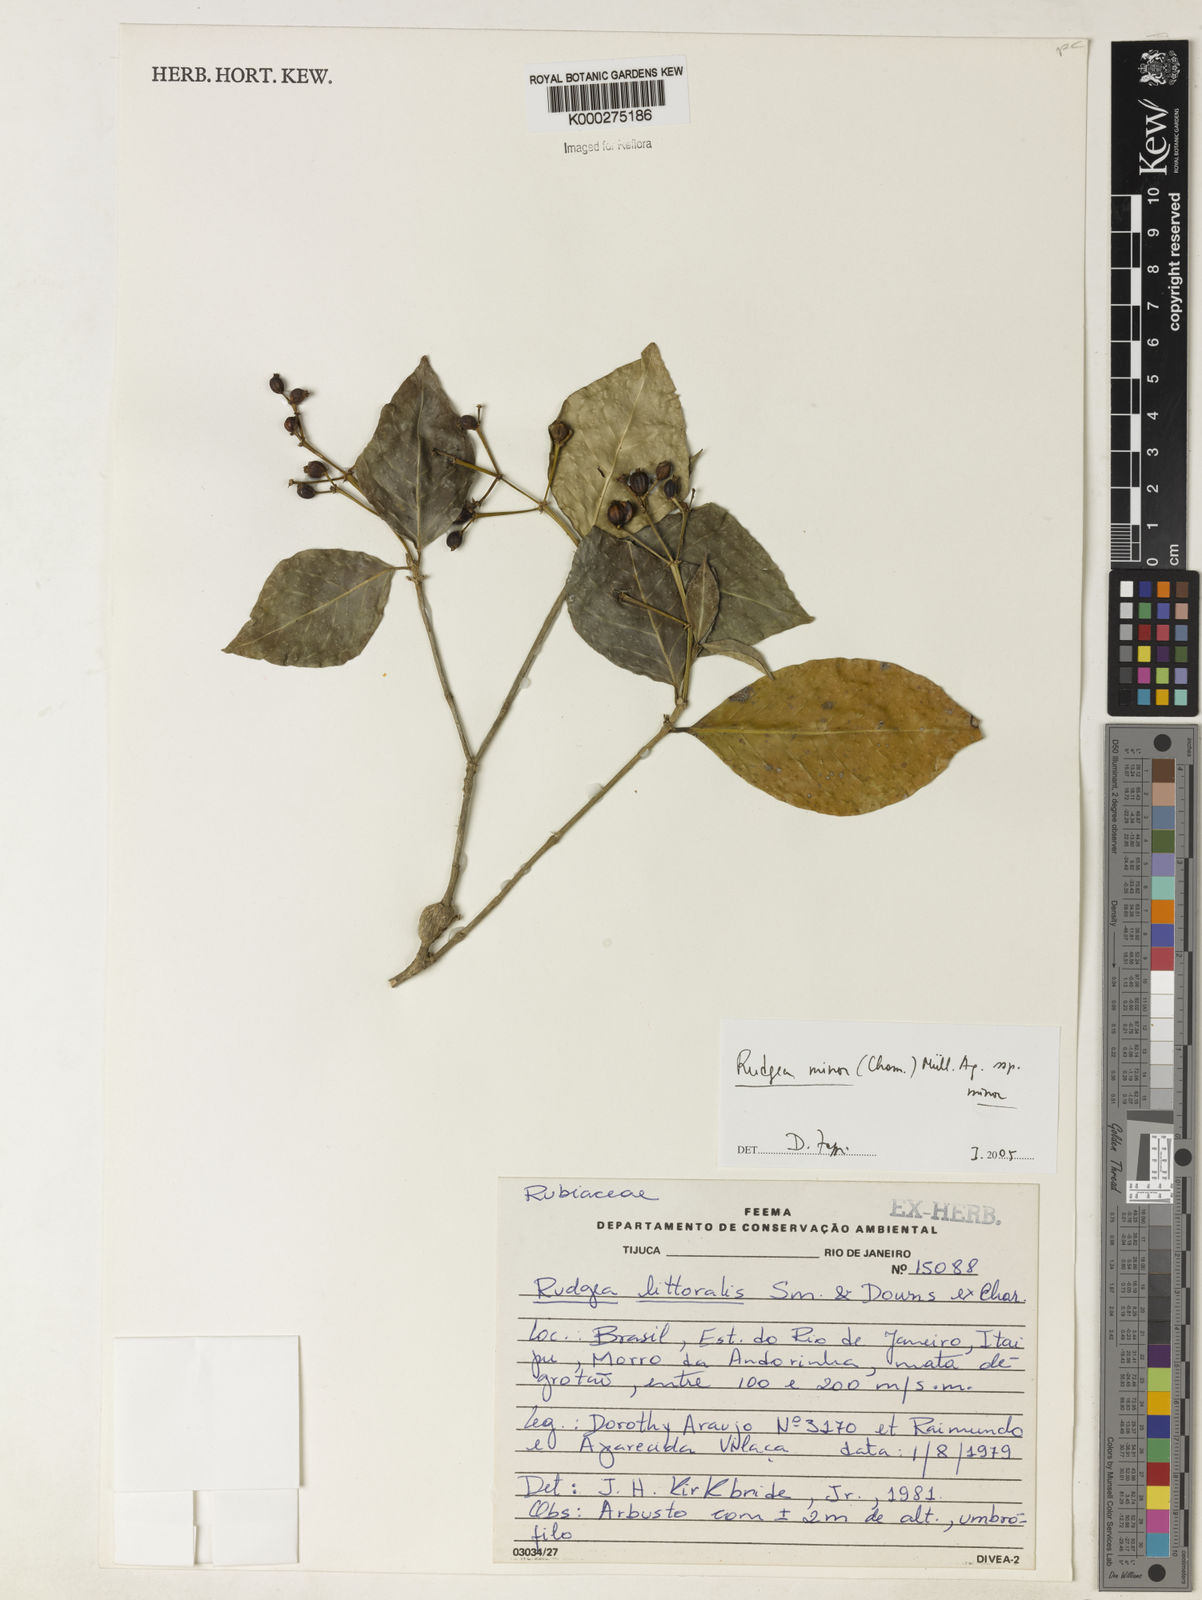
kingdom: Plantae
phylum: Tracheophyta
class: Magnoliopsida
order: Gentianales
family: Rubiaceae
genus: Rudgea
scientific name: Rudgea minor
